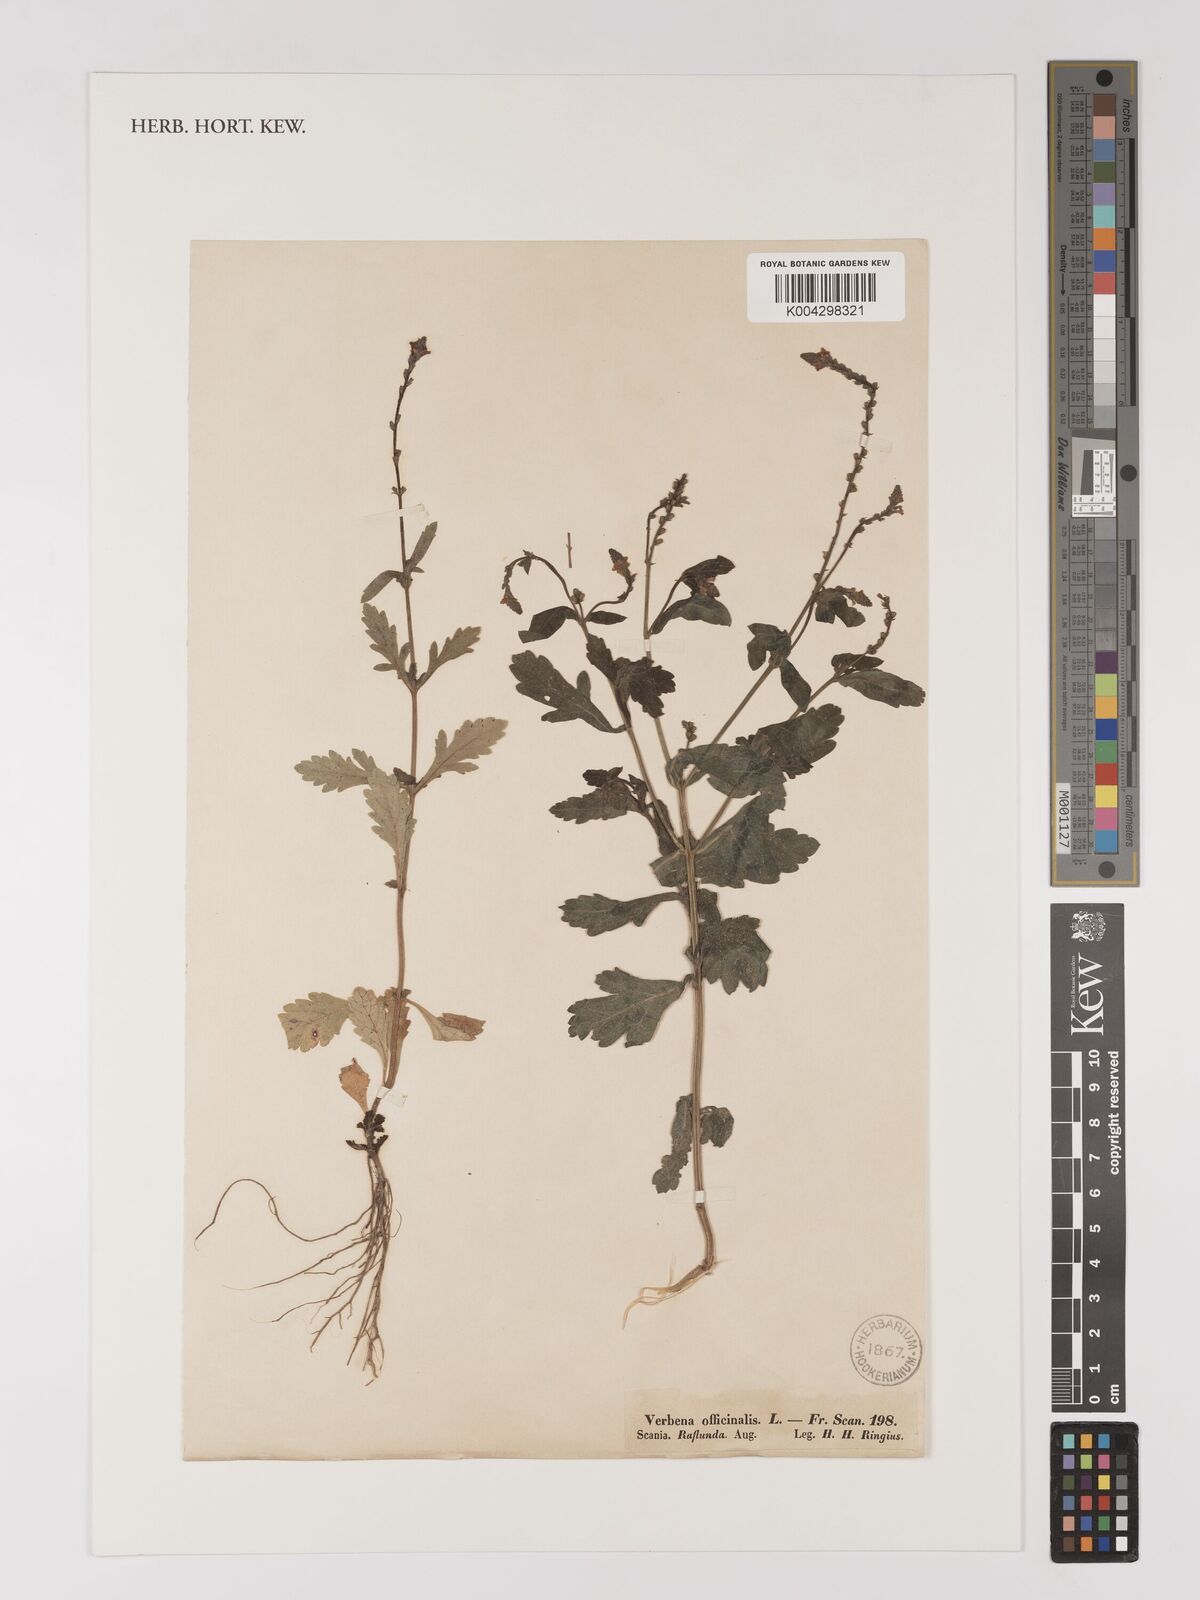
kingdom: Plantae
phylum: Tracheophyta
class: Magnoliopsida
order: Lamiales
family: Verbenaceae
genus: Verbena
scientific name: Verbena officinalis
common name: Vervain
